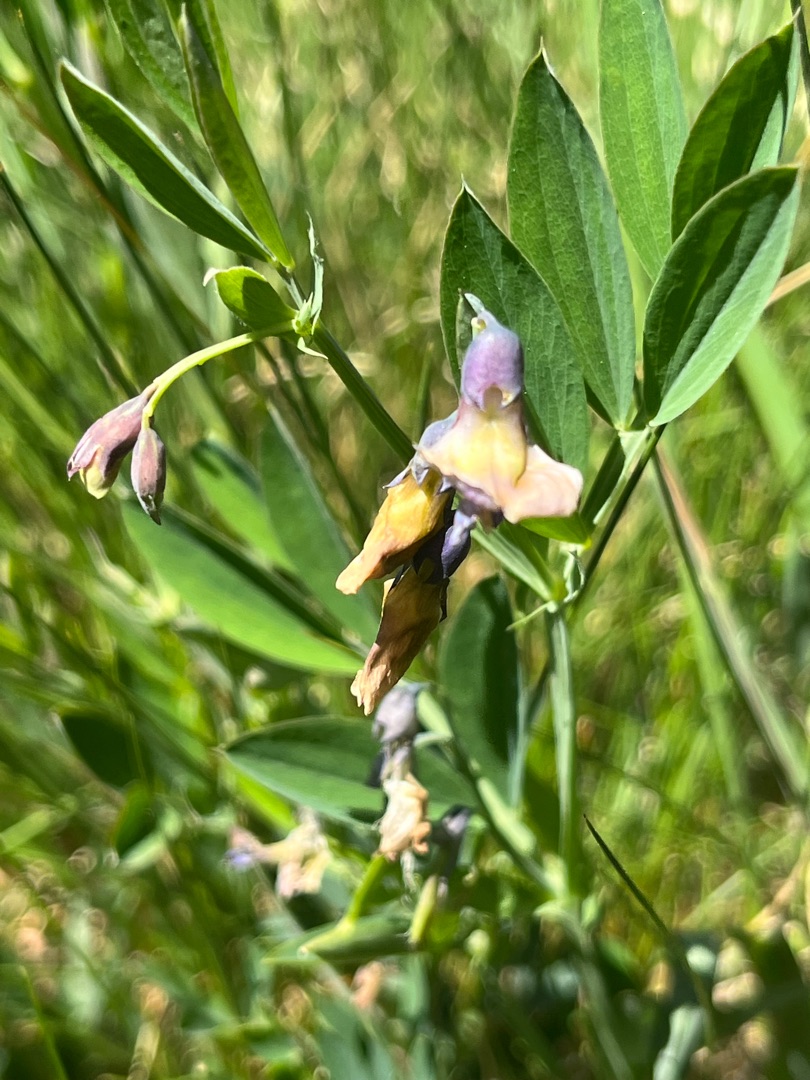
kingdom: Plantae
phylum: Tracheophyta
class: Magnoliopsida
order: Fabales
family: Fabaceae
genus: Lathyrus
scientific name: Lathyrus linifolius
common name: Krat-fladbælg
